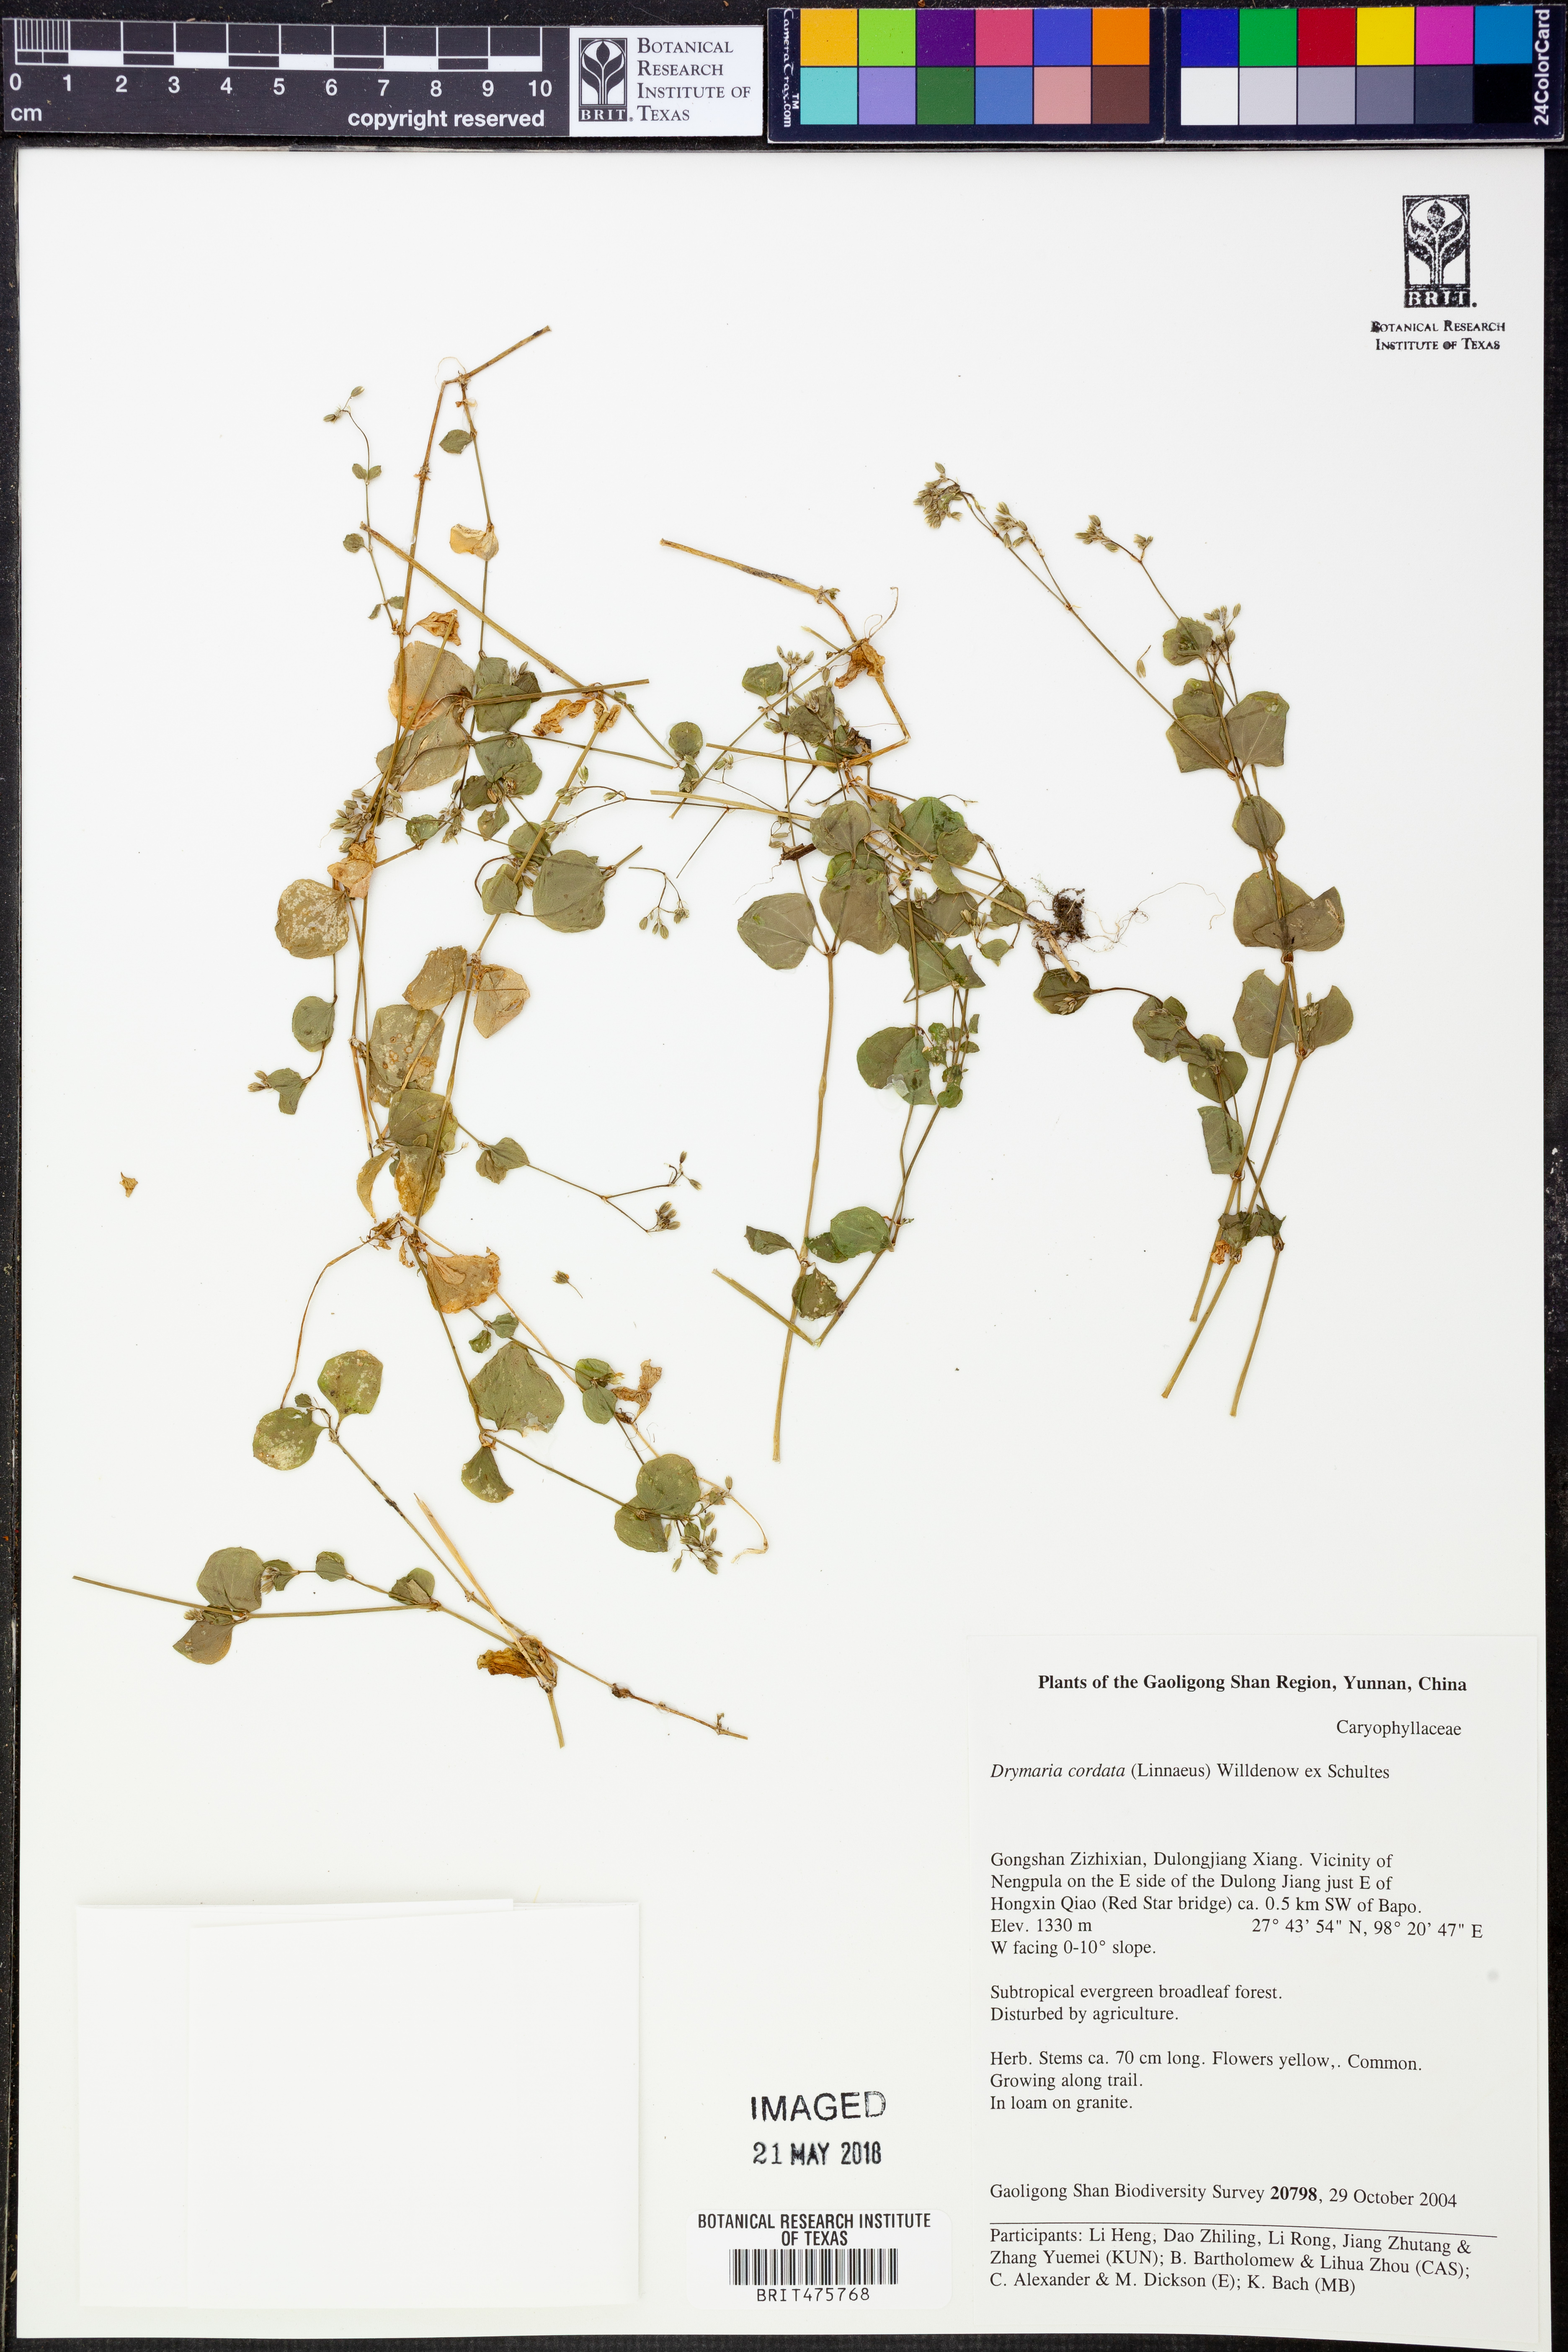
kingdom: Plantae
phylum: Tracheophyta
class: Magnoliopsida
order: Caryophyllales
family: Caryophyllaceae
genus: Drymaria
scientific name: Drymaria cordata
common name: Whitesnow
